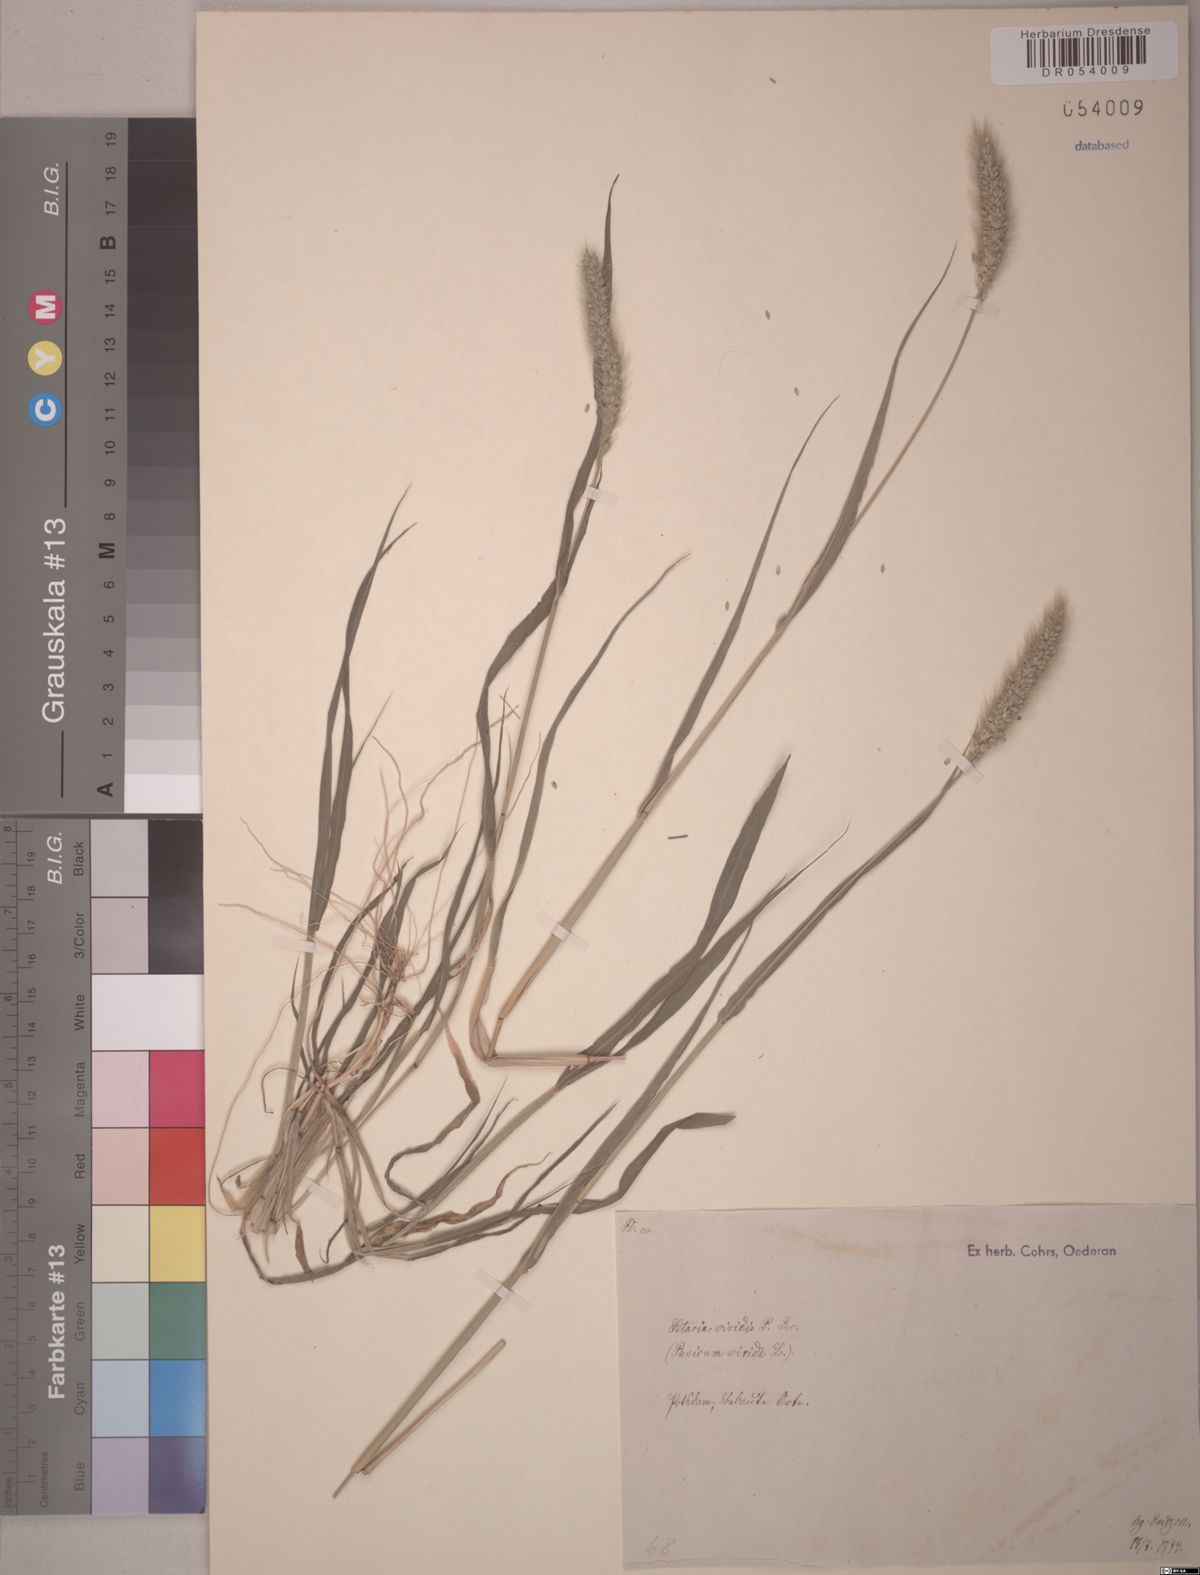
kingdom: Plantae
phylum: Tracheophyta
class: Liliopsida
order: Poales
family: Poaceae
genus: Setaria
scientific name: Setaria viridis
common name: Green bristlegrass
